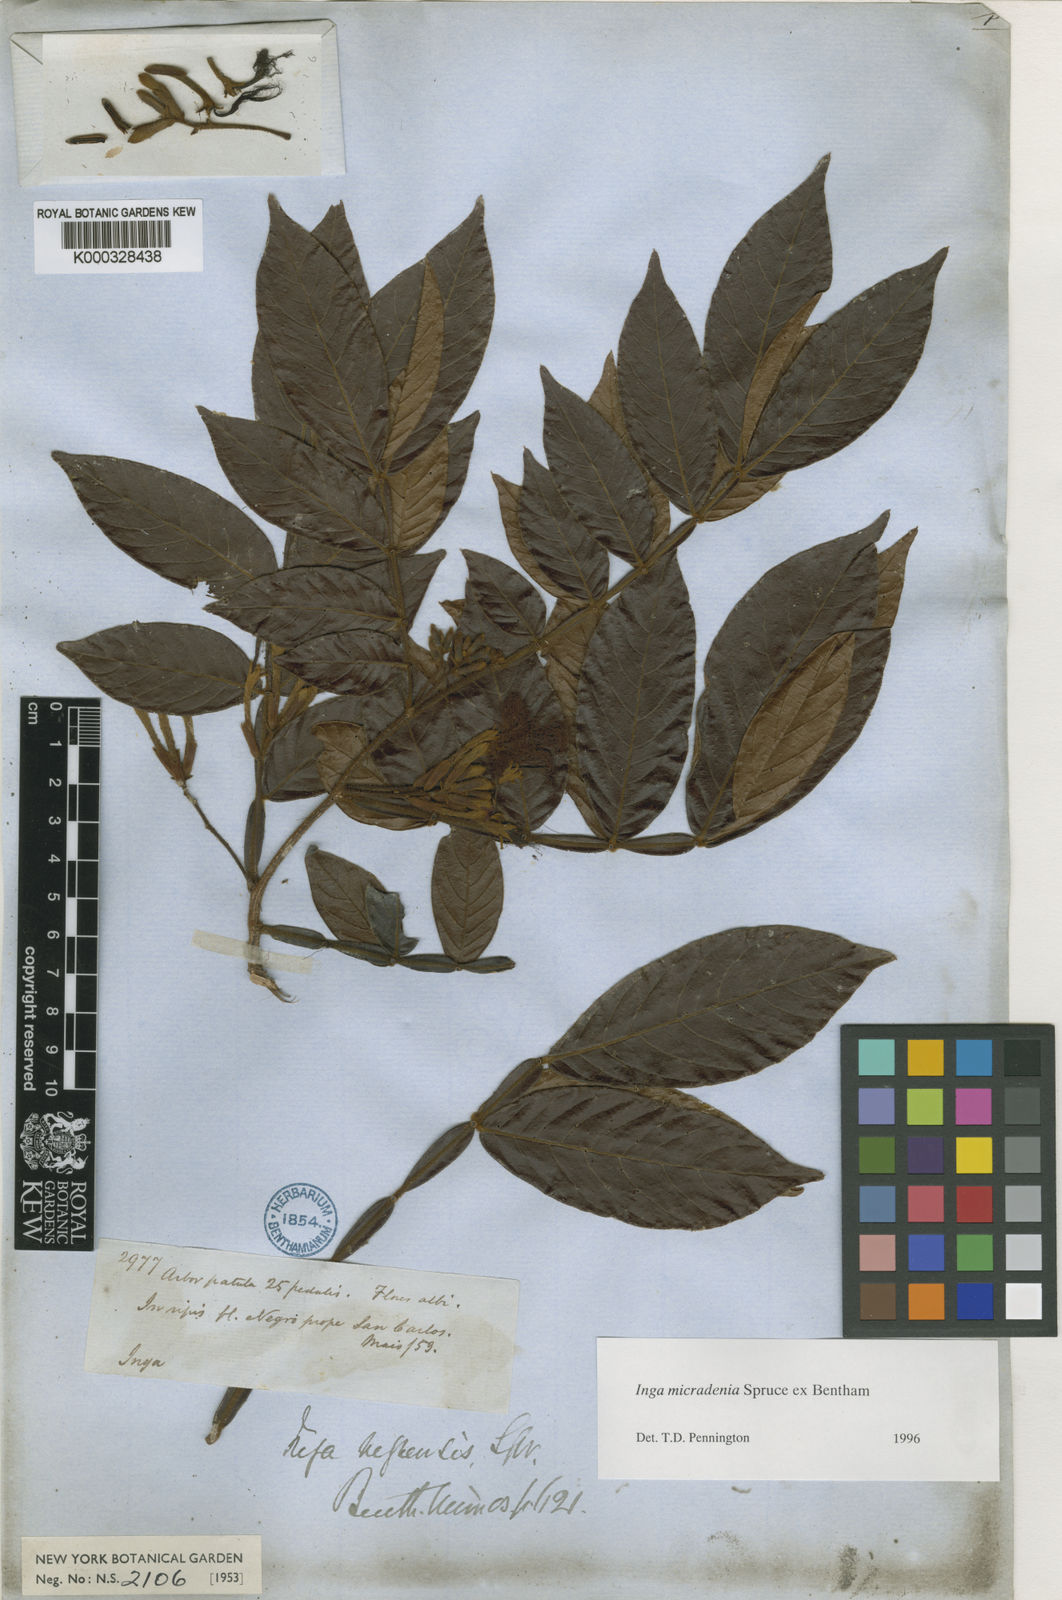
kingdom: Plantae
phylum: Tracheophyta
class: Magnoliopsida
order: Fabales
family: Fabaceae
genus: Inga
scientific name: Inga micradenia
